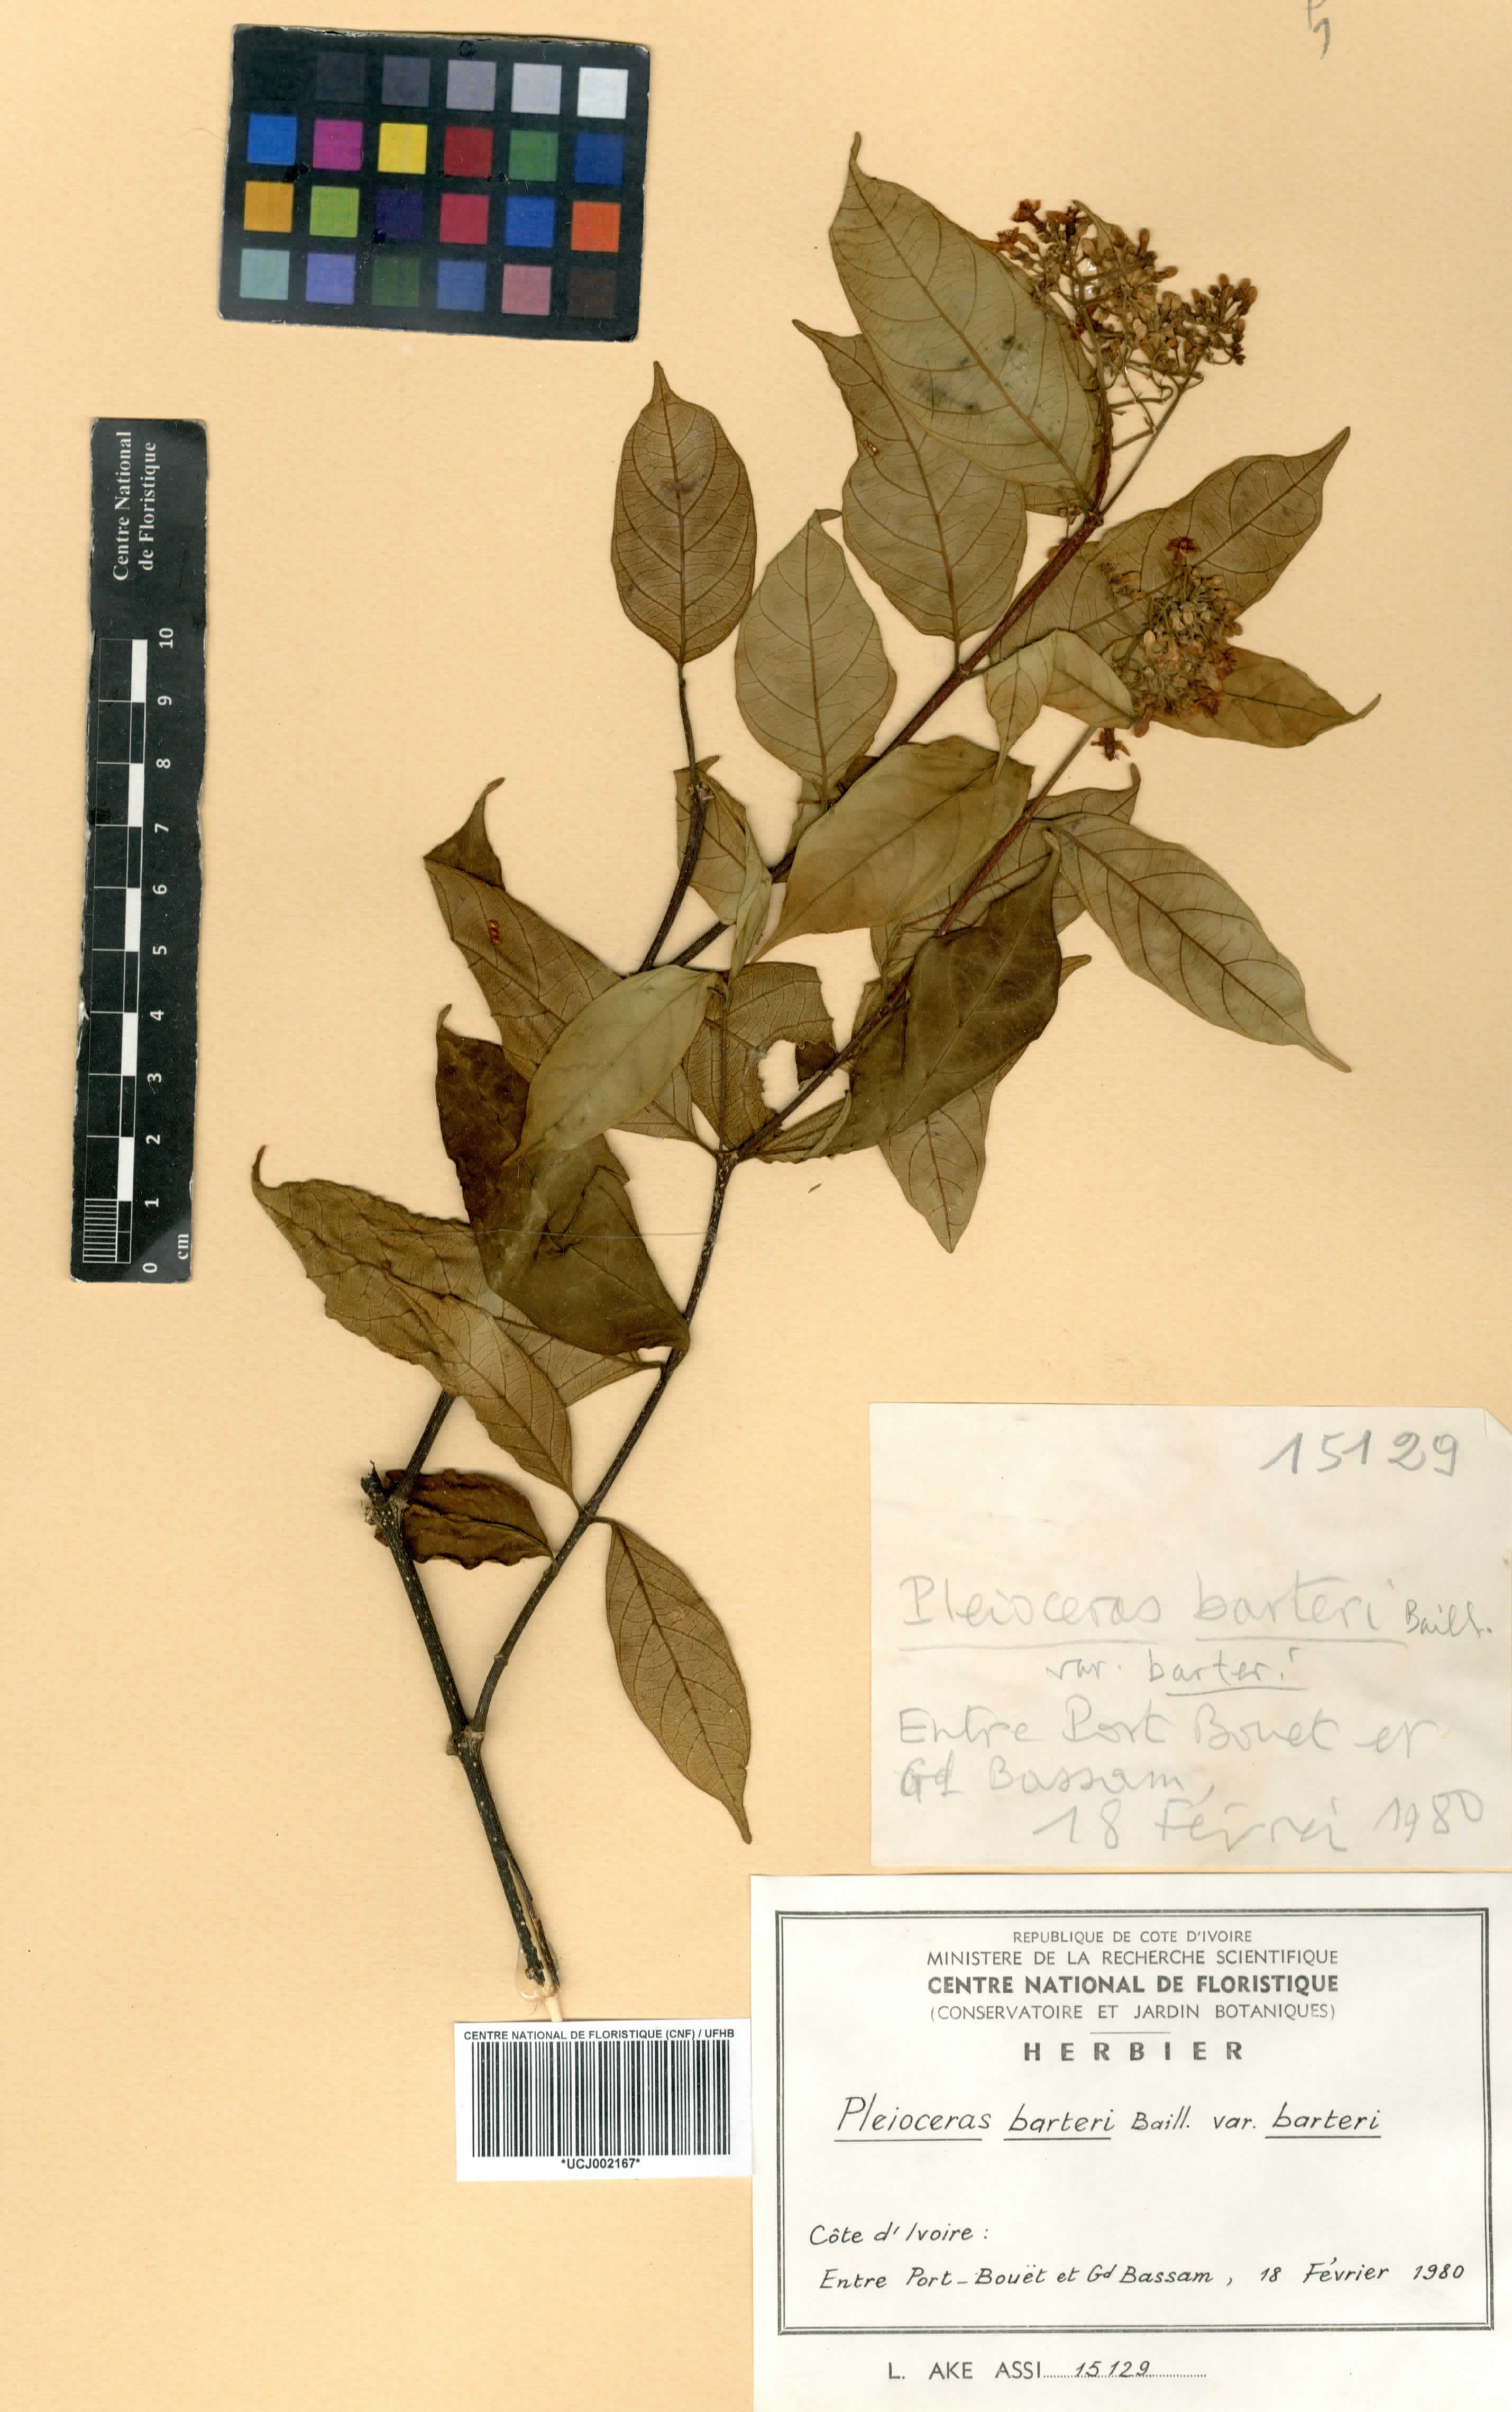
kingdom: Plantae
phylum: Tracheophyta
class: Magnoliopsida
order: Gentianales
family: Apocynaceae
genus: Pleioceras
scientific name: Pleioceras barteri
